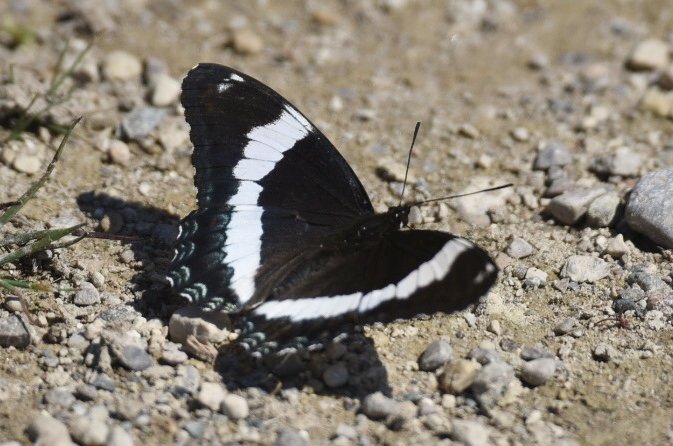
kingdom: Animalia
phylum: Arthropoda
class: Insecta
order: Lepidoptera
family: Nymphalidae
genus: Limenitis
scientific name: Limenitis arthemis
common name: Red-spotted Admiral
